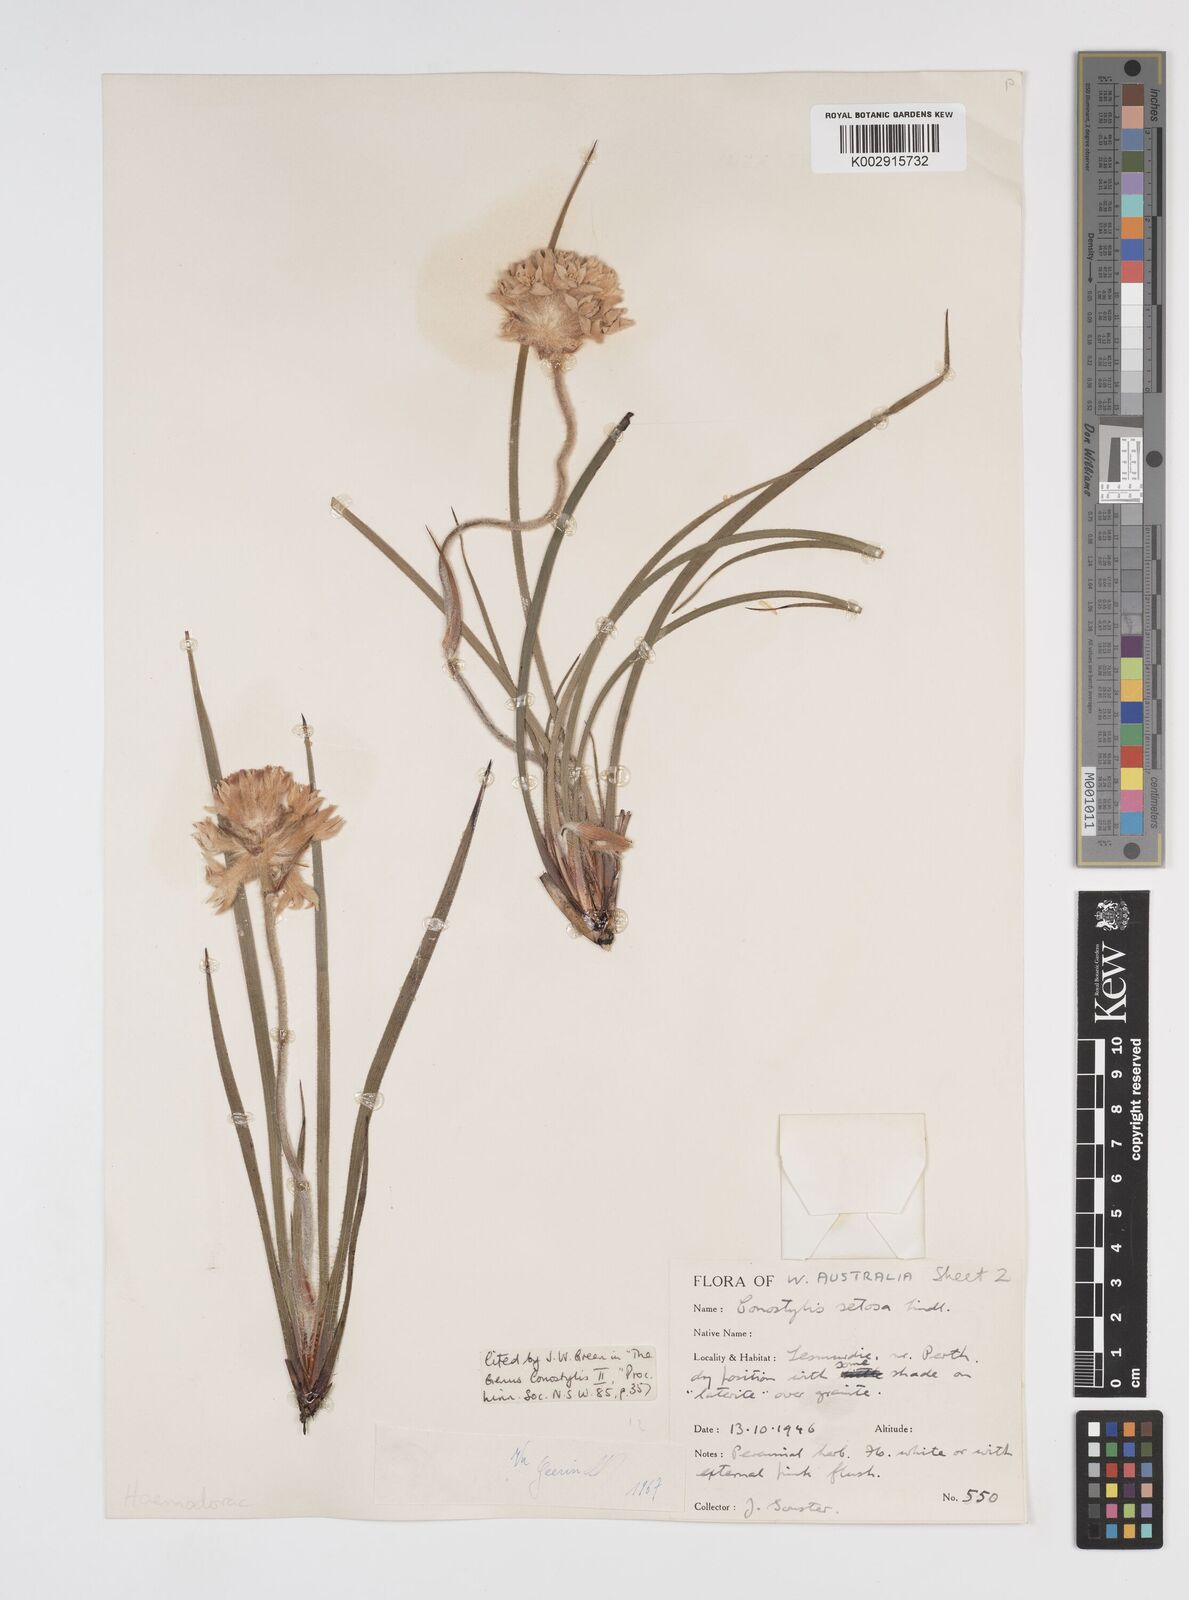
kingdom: Plantae
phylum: Tracheophyta
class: Liliopsida
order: Commelinales
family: Haemodoraceae
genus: Conostylis
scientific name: Conostylis setosa
